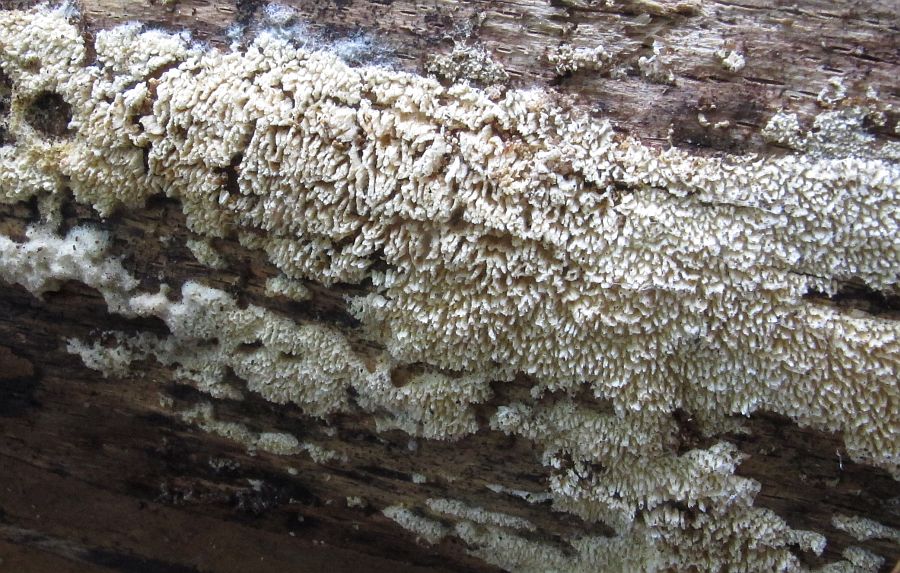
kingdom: Fungi
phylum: Basidiomycota
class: Agaricomycetes
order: Hymenochaetales
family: Schizoporaceae
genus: Schizopora
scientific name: Schizopora paradoxa
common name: hvid tandsvamp
